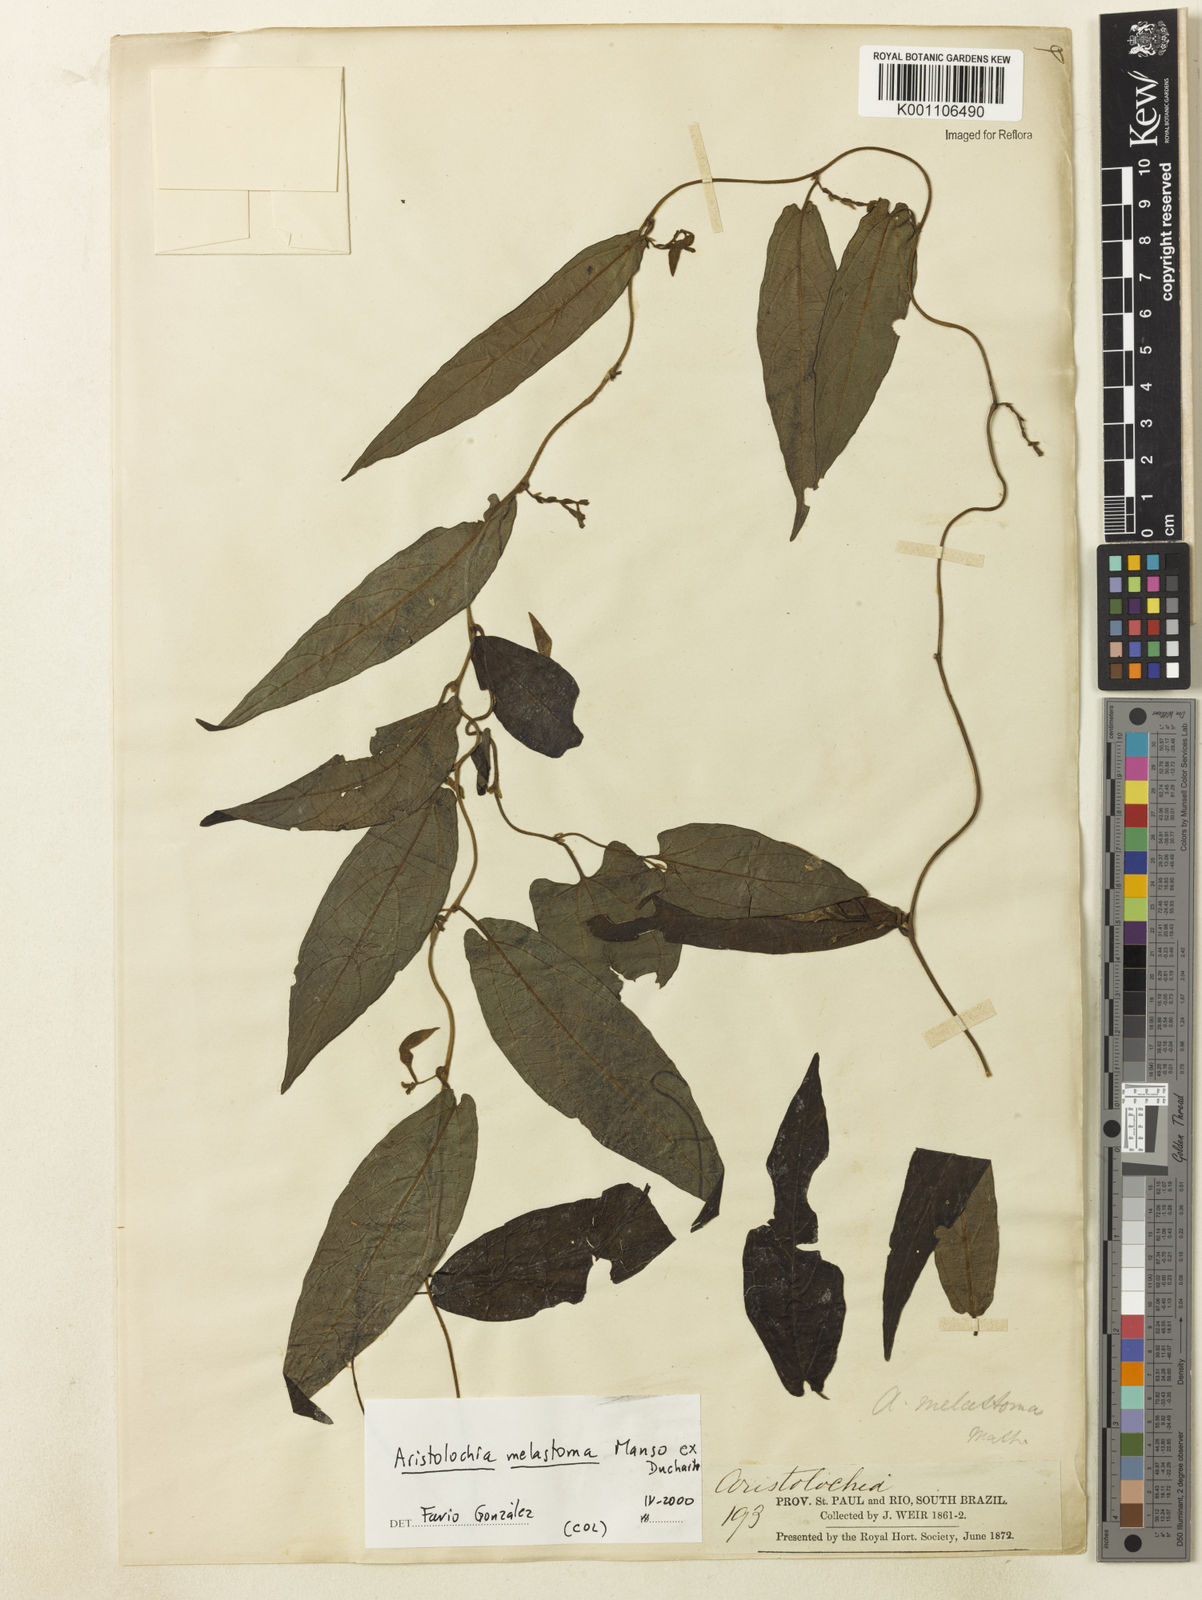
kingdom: Plantae
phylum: Tracheophyta
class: Magnoliopsida
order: Piperales
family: Aristolochiaceae
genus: Aristolochia
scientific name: Aristolochia melastoma
